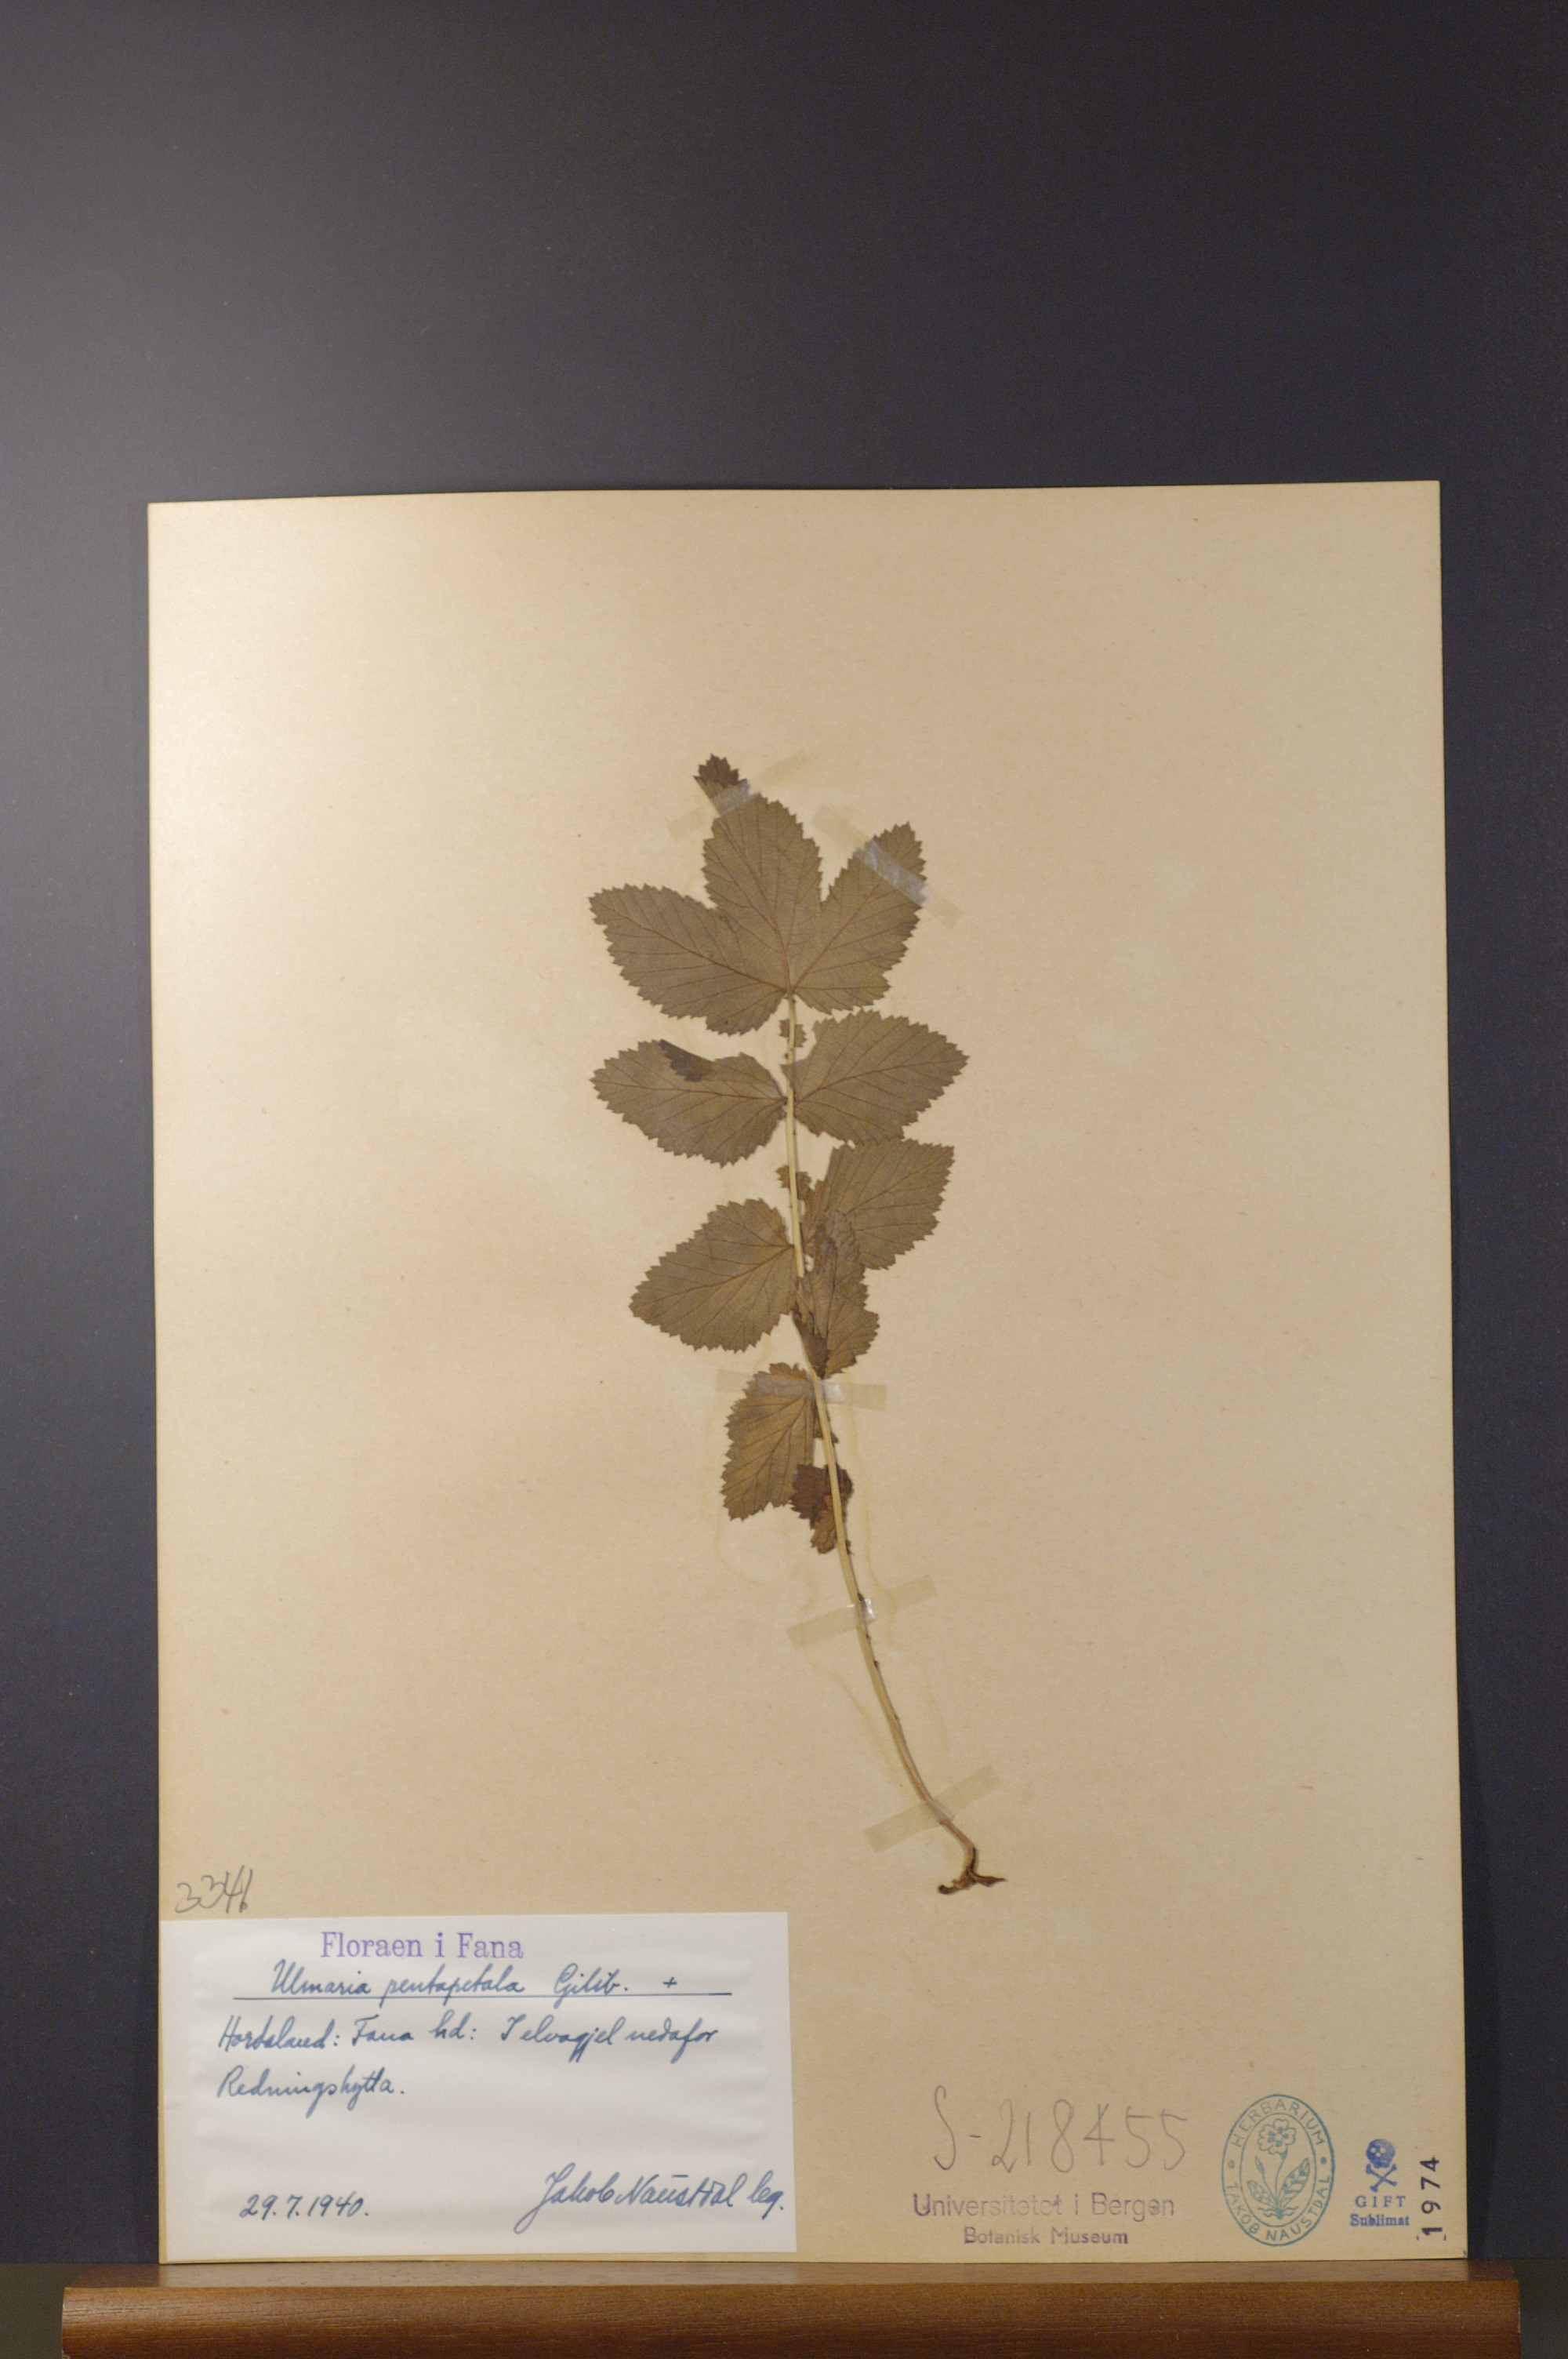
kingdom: Plantae
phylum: Tracheophyta
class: Magnoliopsida
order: Rosales
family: Rosaceae
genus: Filipendula
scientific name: Filipendula ulmaria
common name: Meadowsweet
